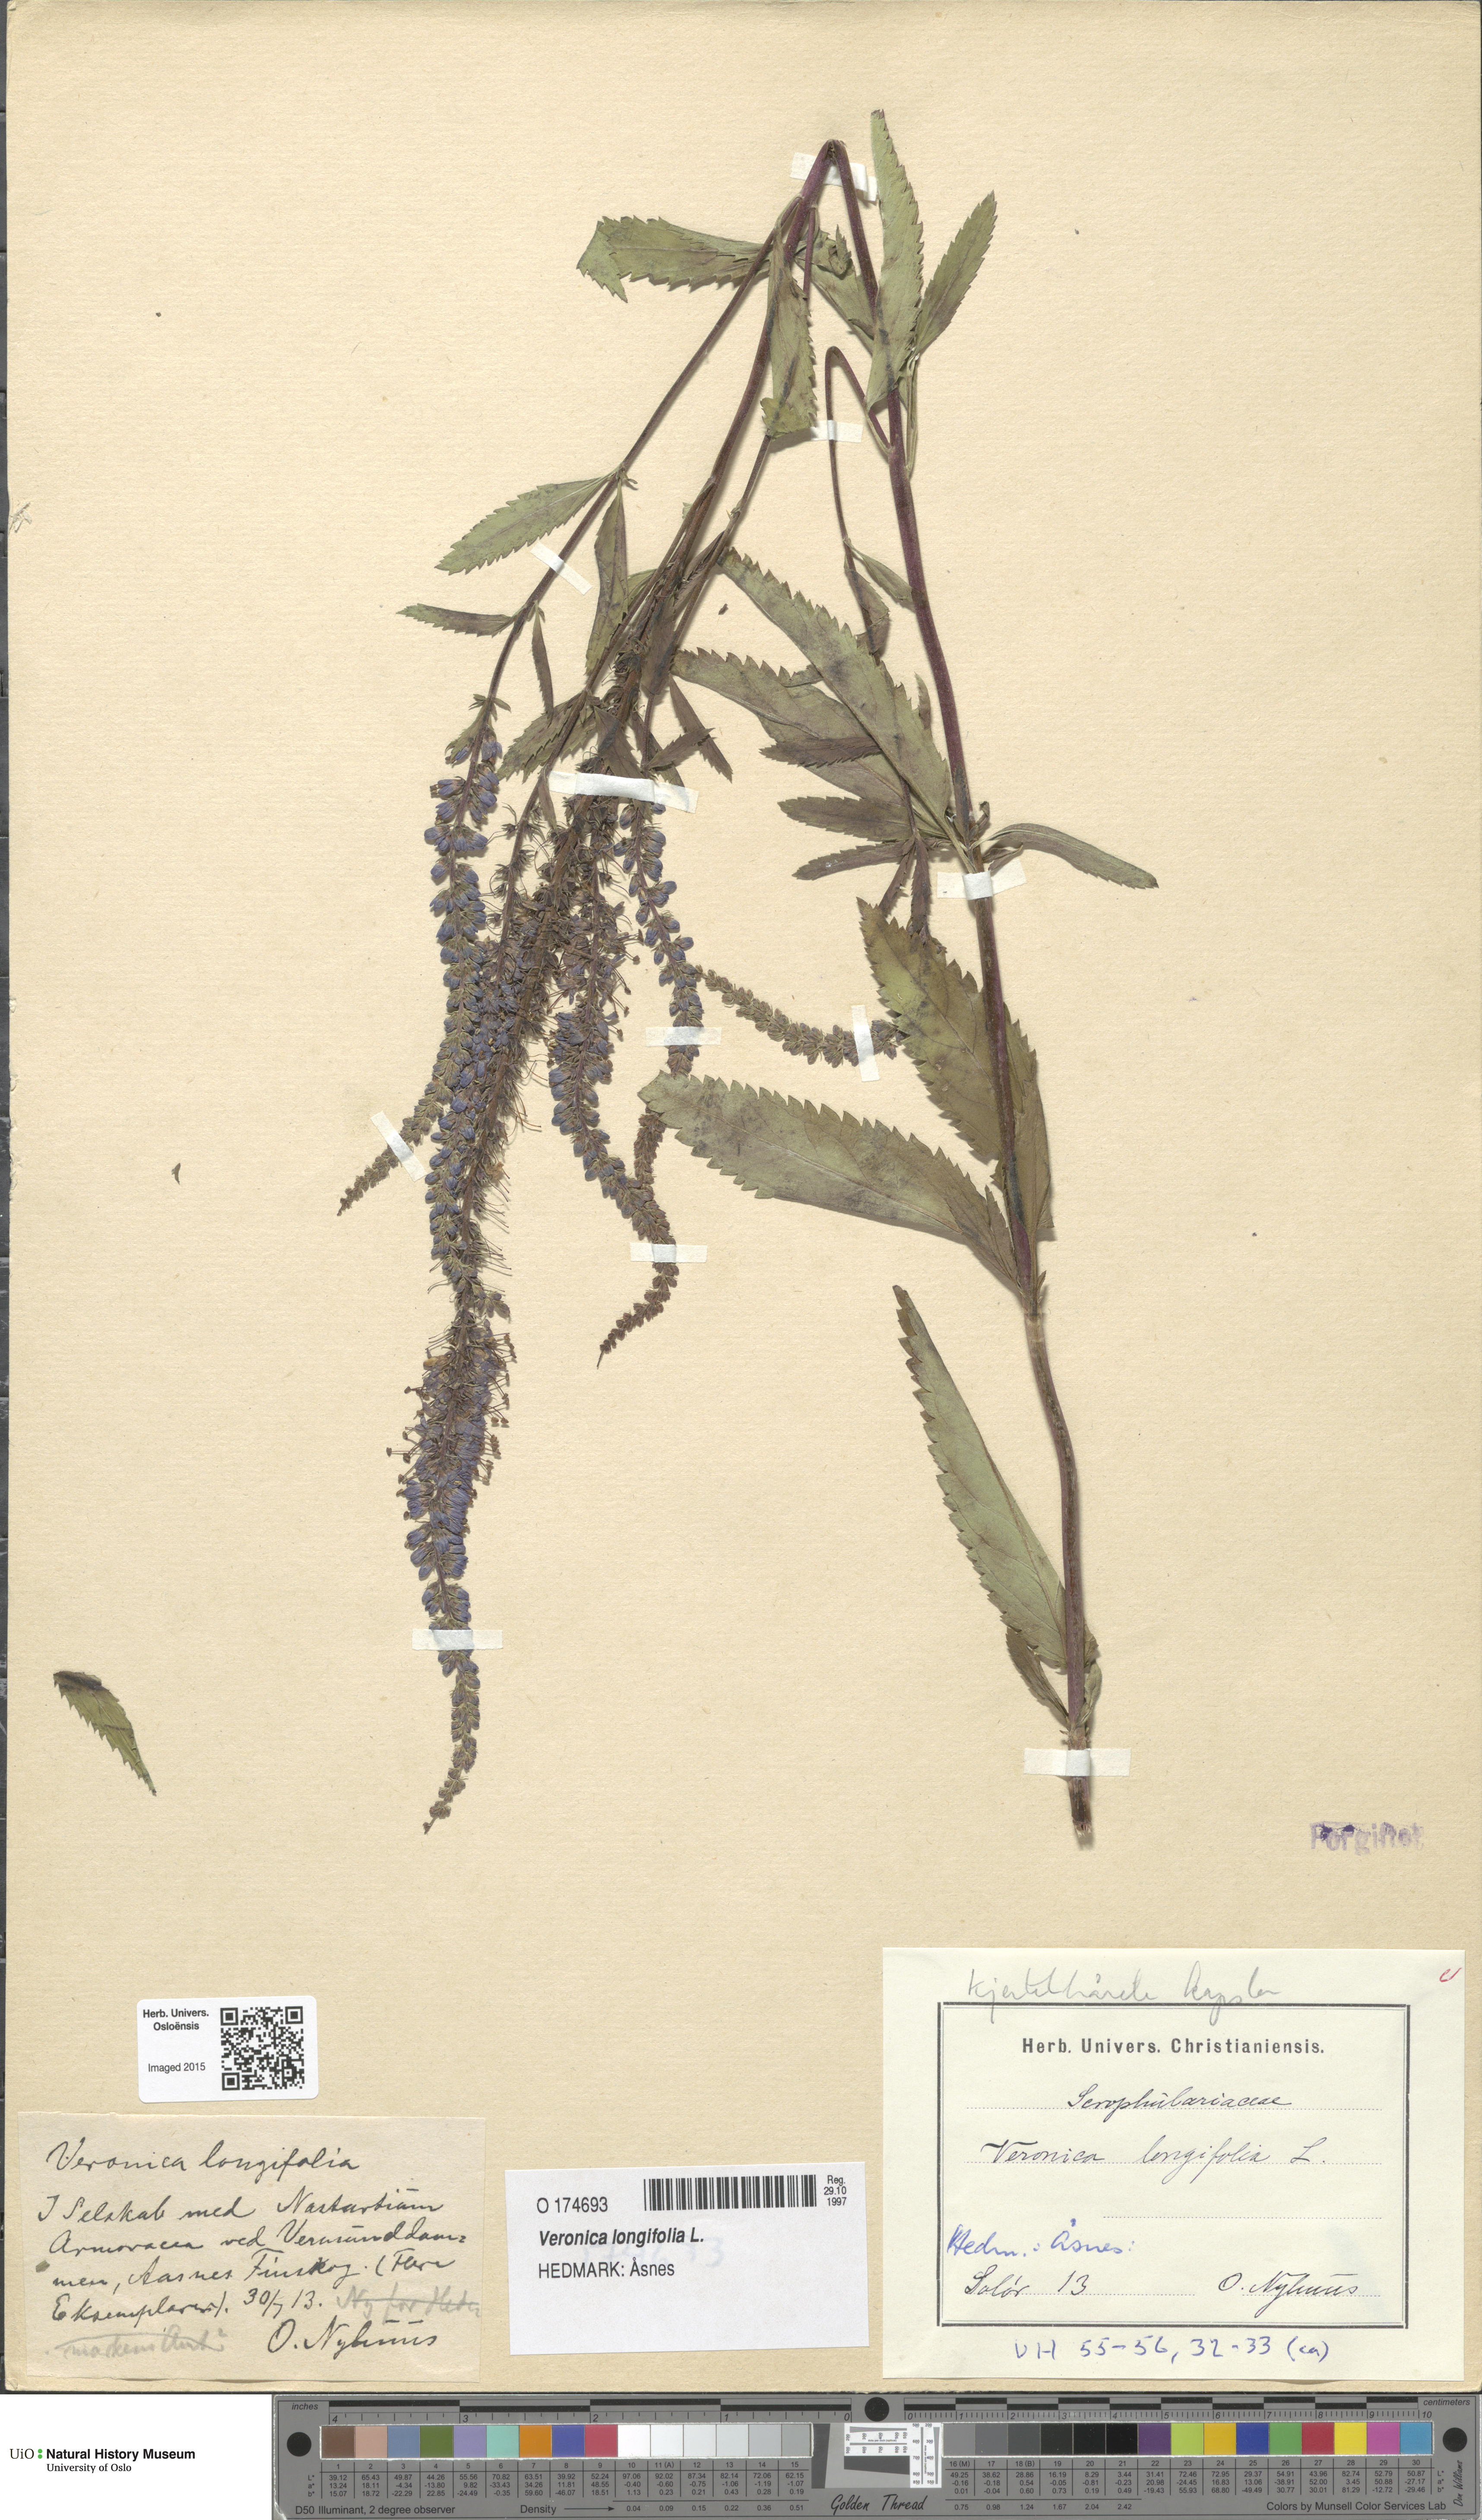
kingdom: Plantae
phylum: Tracheophyta
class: Magnoliopsida
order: Lamiales
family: Plantaginaceae
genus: Veronica
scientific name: Veronica longifolia
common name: Garden speedwell
